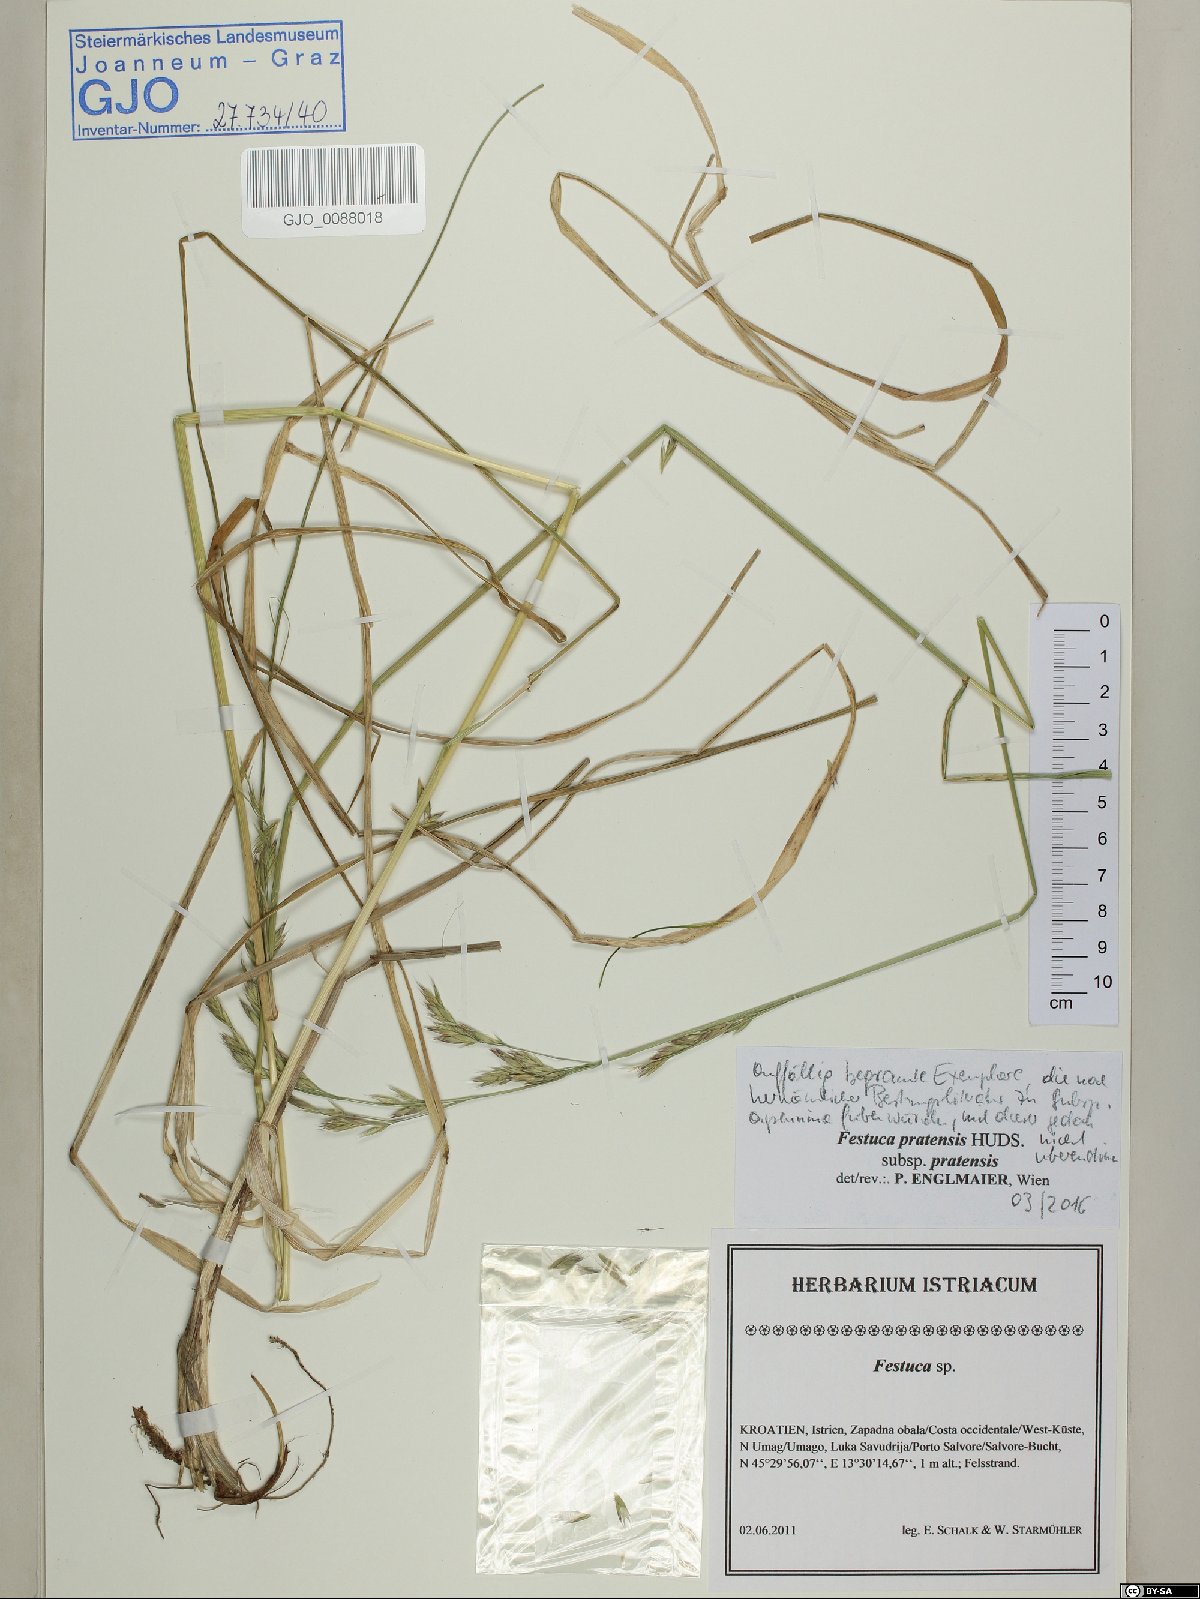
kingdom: Plantae
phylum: Tracheophyta
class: Liliopsida
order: Poales
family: Poaceae
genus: Lolium
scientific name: Lolium pratense
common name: Dover grass
